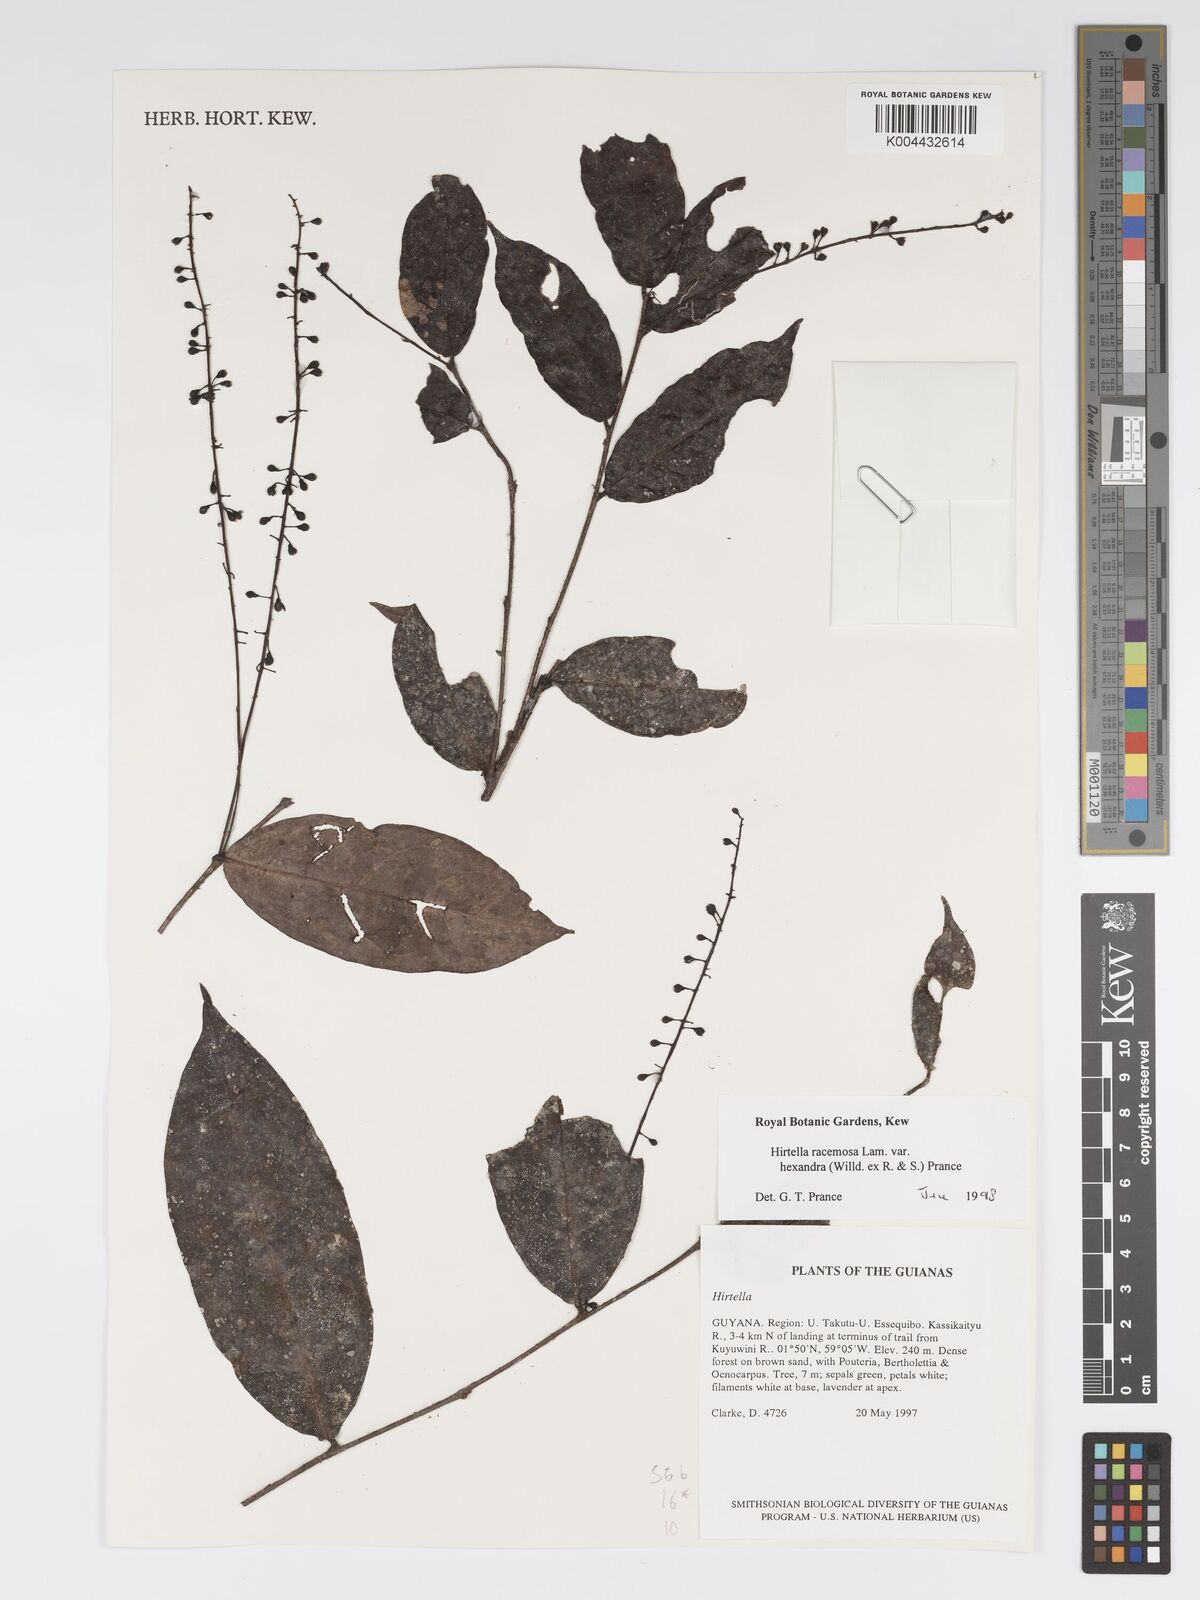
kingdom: Plantae
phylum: Tracheophyta
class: Magnoliopsida
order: Malpighiales
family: Chrysobalanaceae
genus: Hirtella
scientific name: Hirtella racemosa
